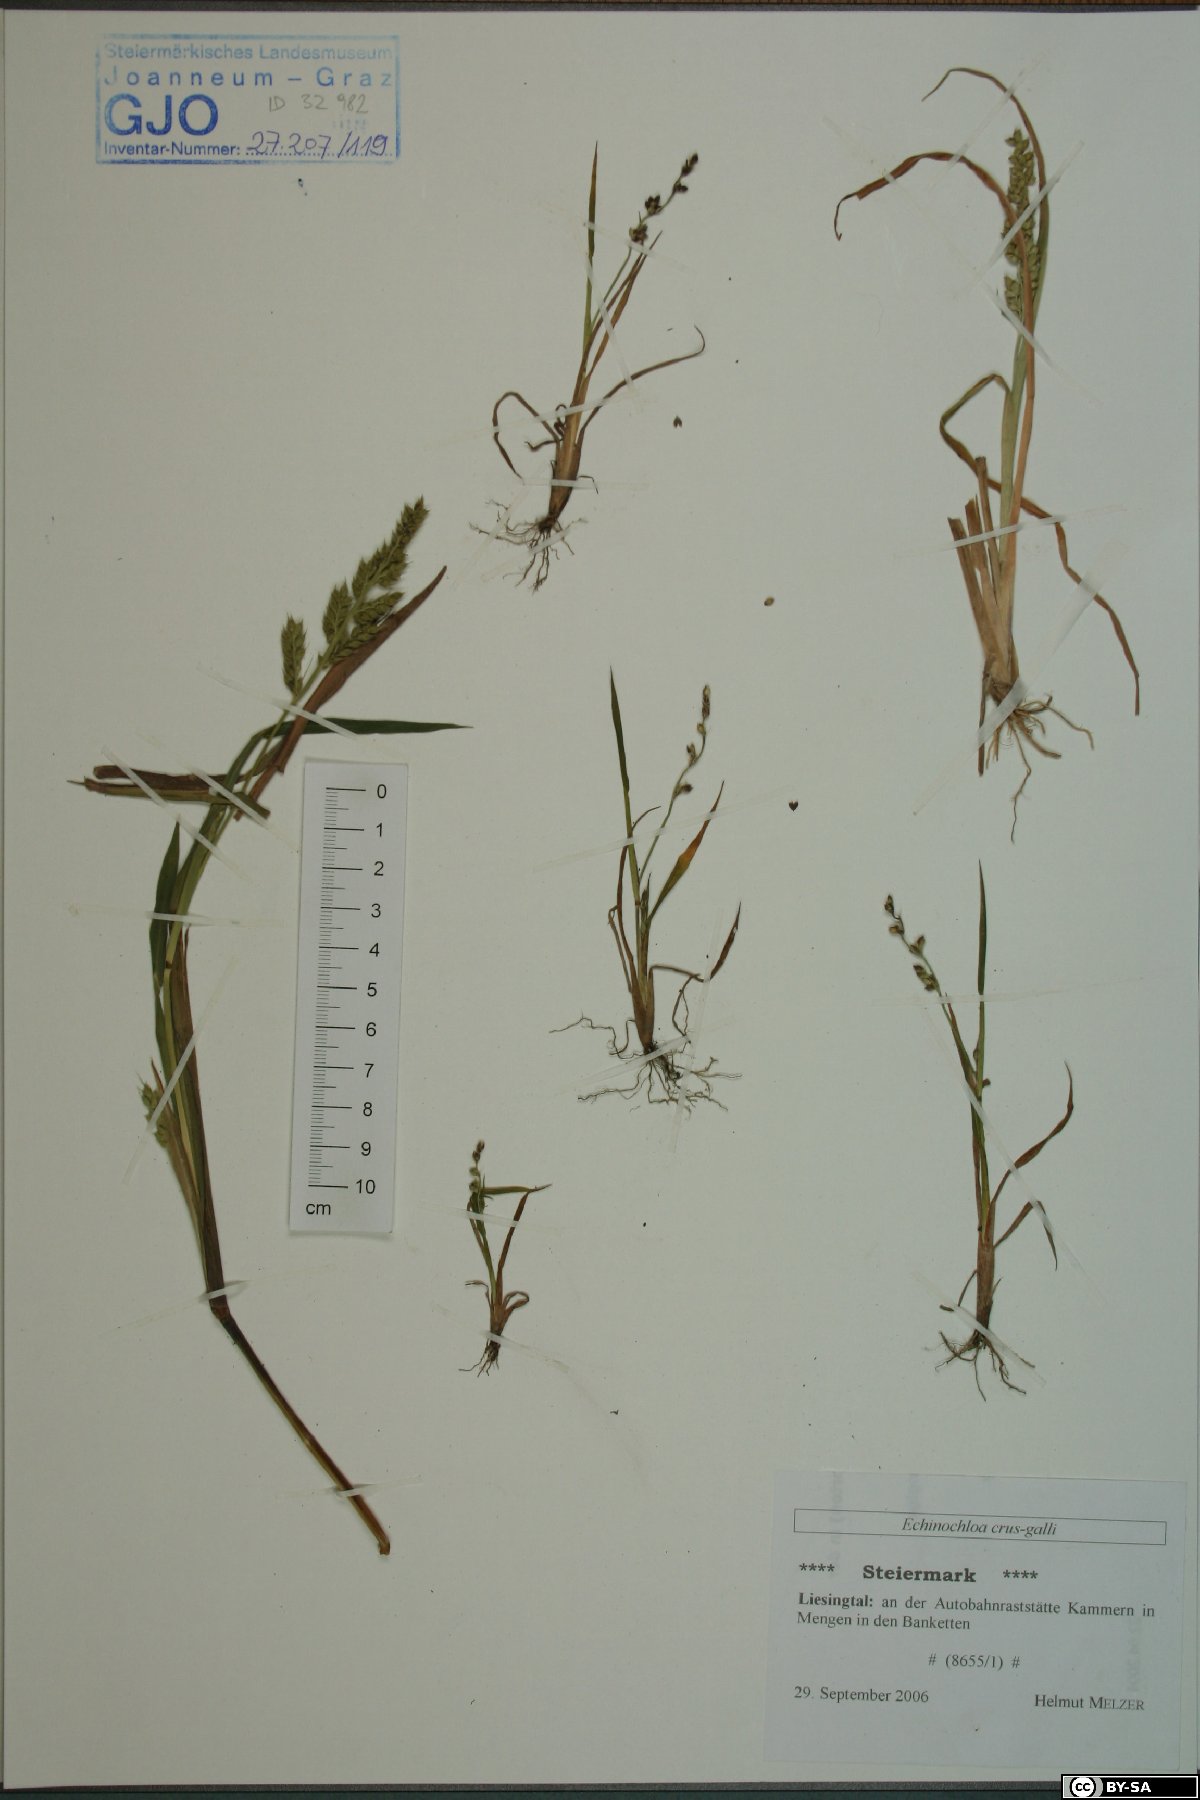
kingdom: Plantae
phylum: Tracheophyta
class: Liliopsida
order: Poales
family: Poaceae
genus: Echinochloa
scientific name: Echinochloa crus-galli
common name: Cockspur
